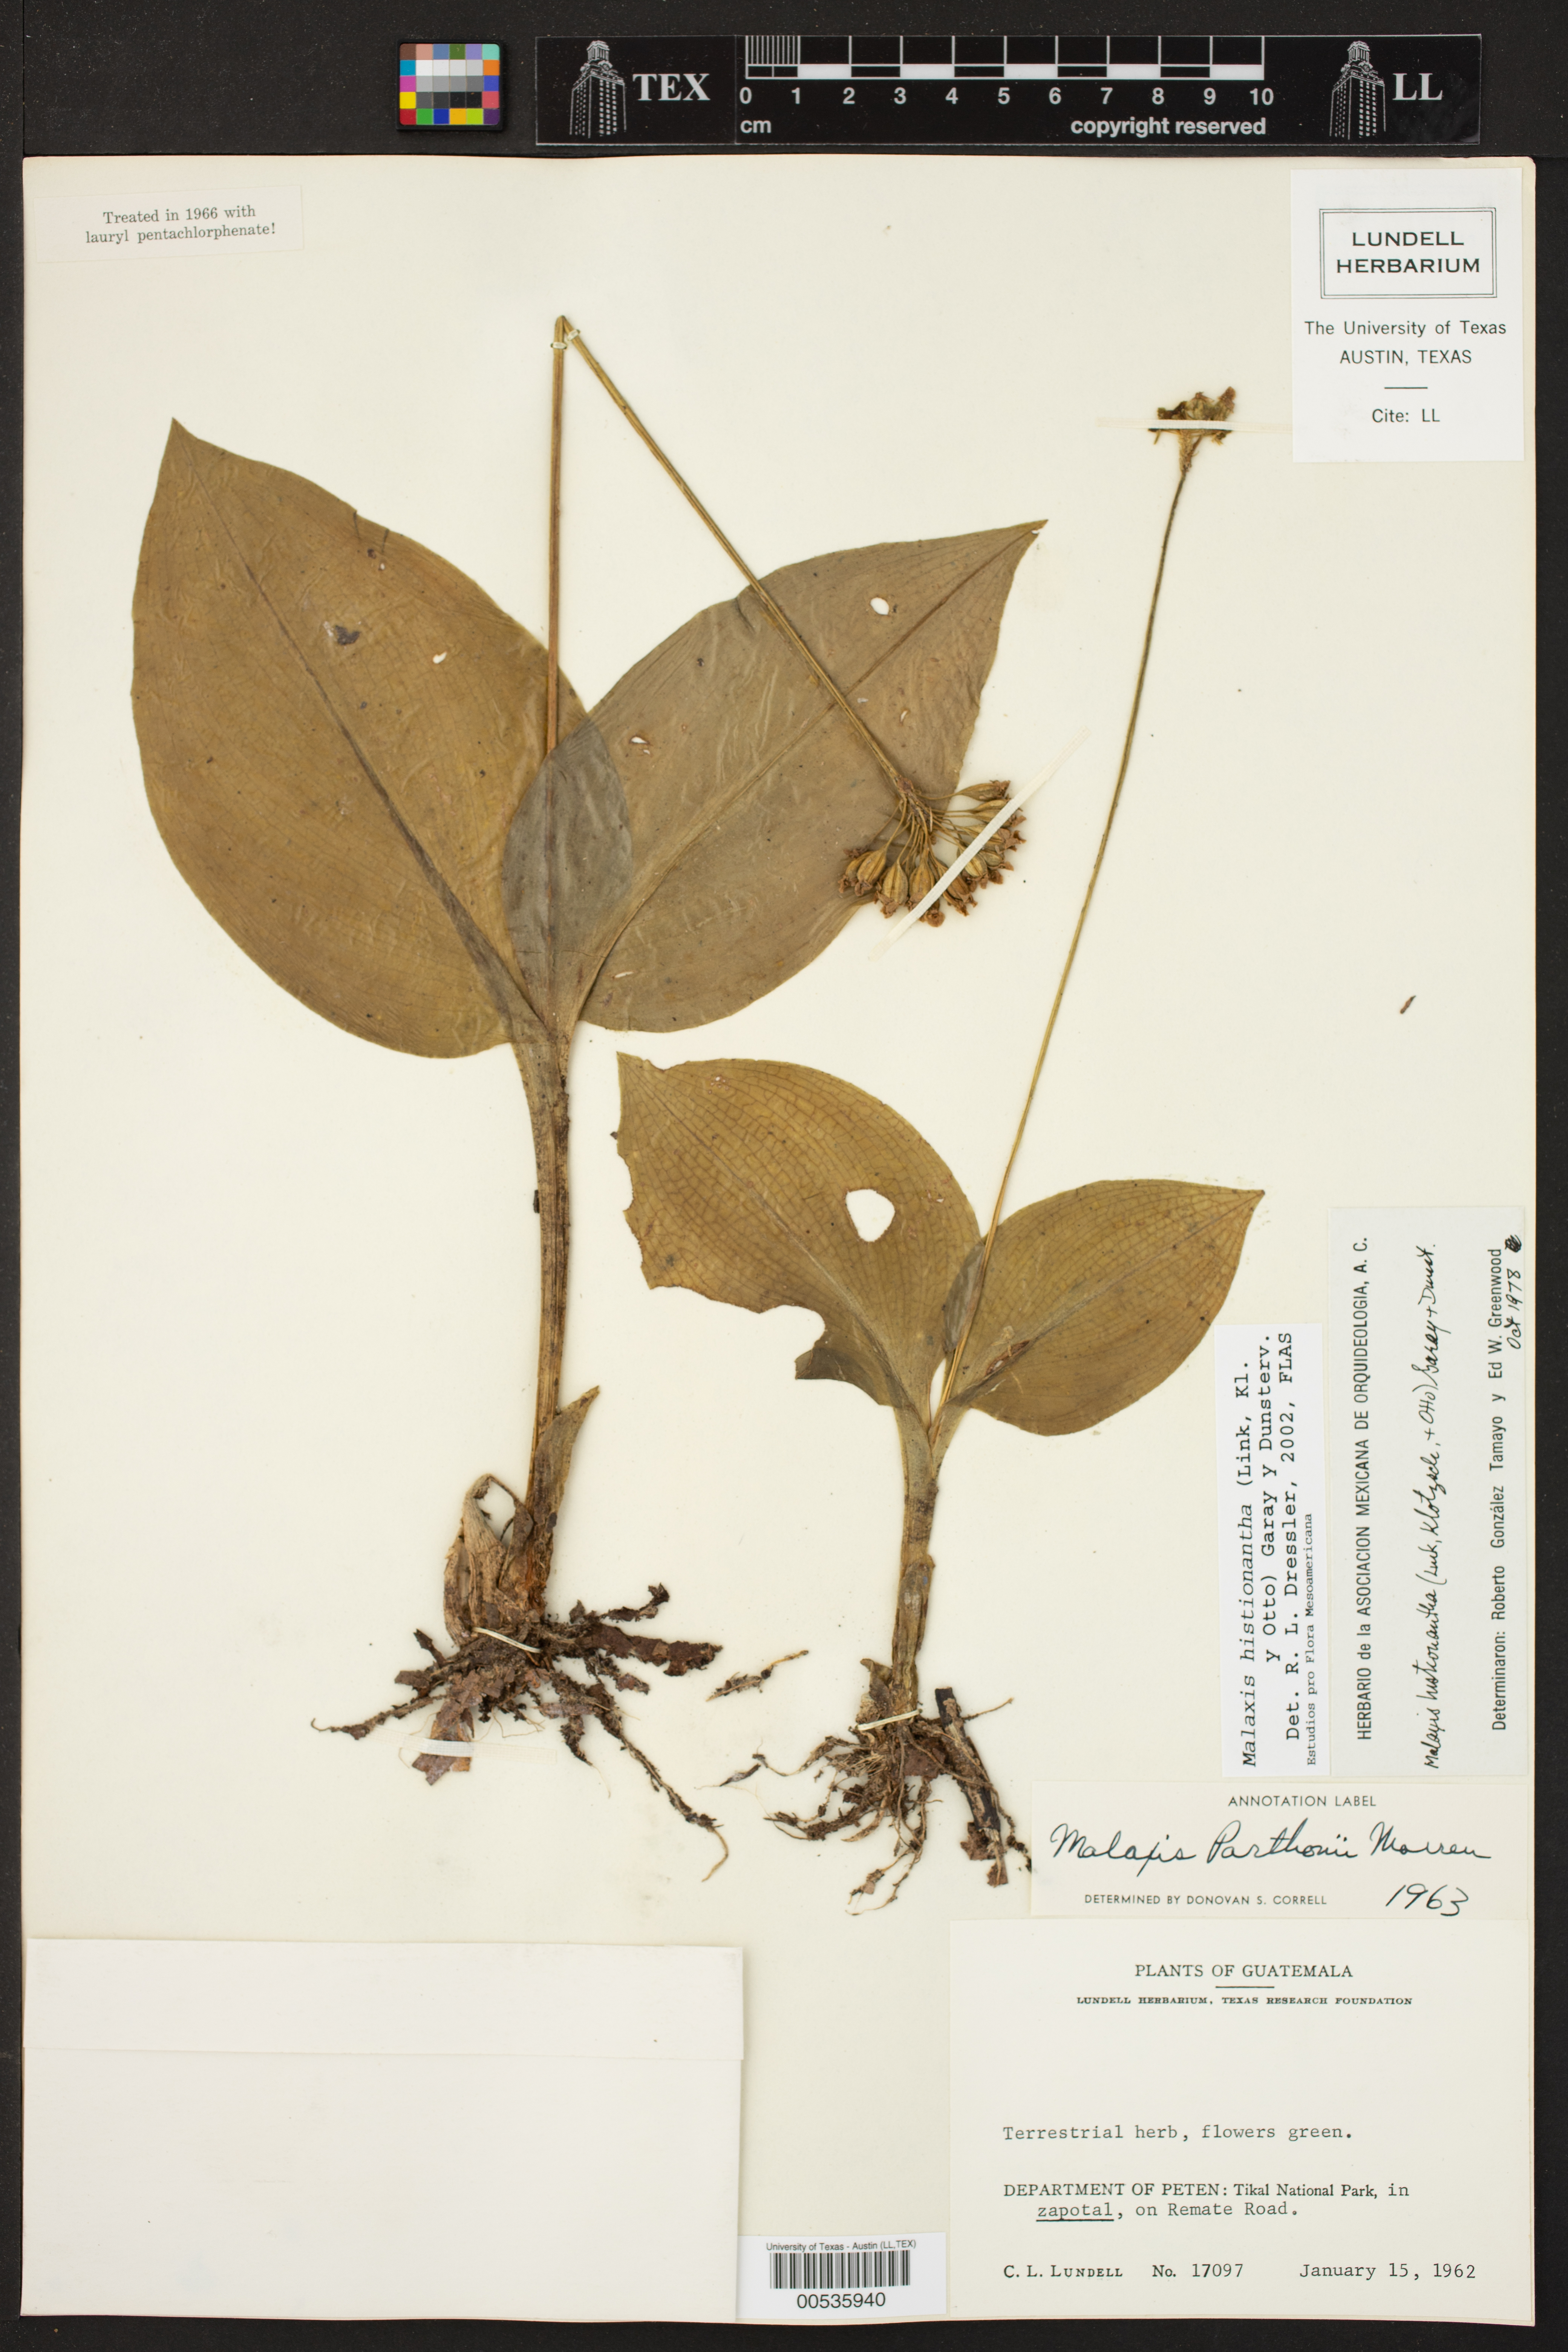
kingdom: Plantae
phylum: Tracheophyta
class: Liliopsida
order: Asparagales
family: Orchidaceae
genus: Malaxis
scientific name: Malaxis histionantha
